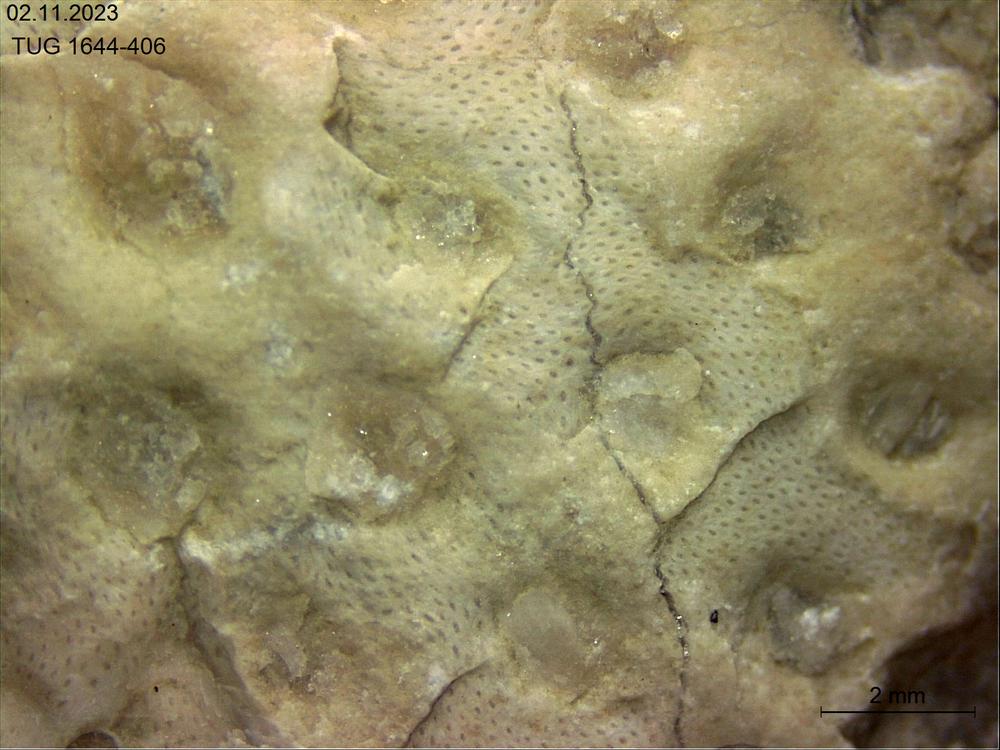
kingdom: Animalia
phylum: Bryozoa
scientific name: Bryozoa
